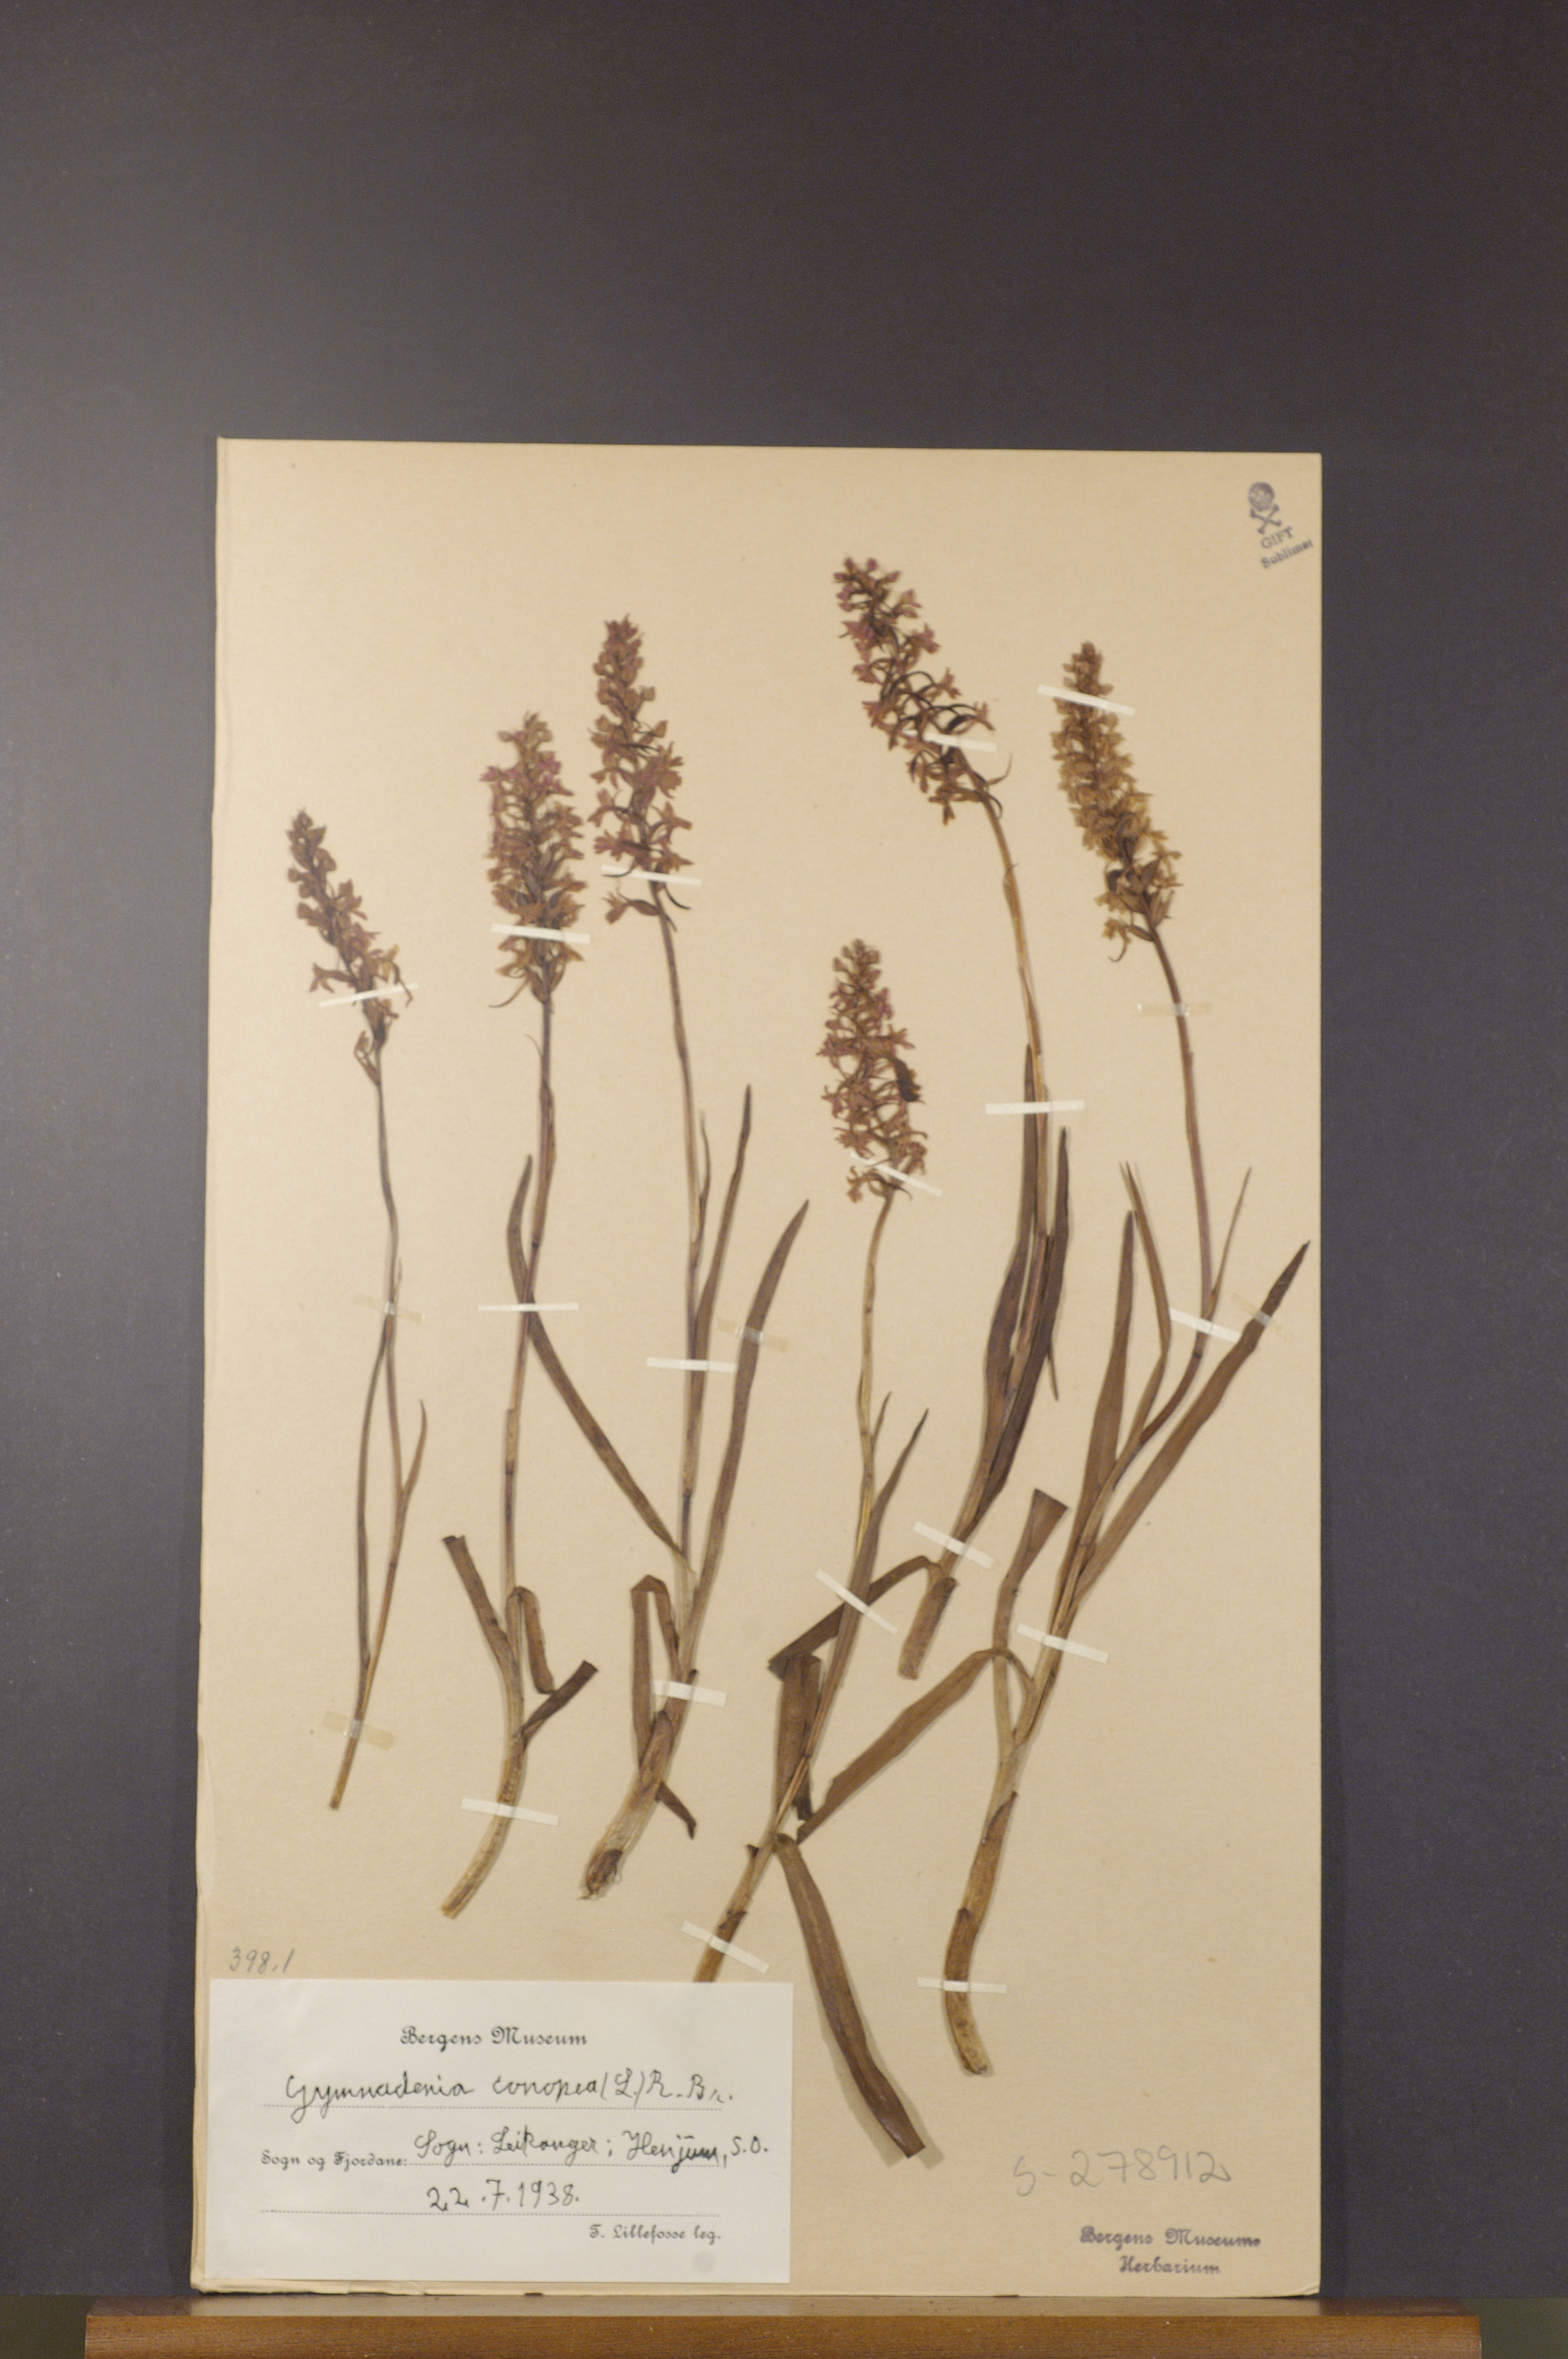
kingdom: Plantae
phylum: Tracheophyta
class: Liliopsida
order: Asparagales
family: Orchidaceae
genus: Gymnadenia
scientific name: Gymnadenia conopsea
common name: Fragrant orchid
